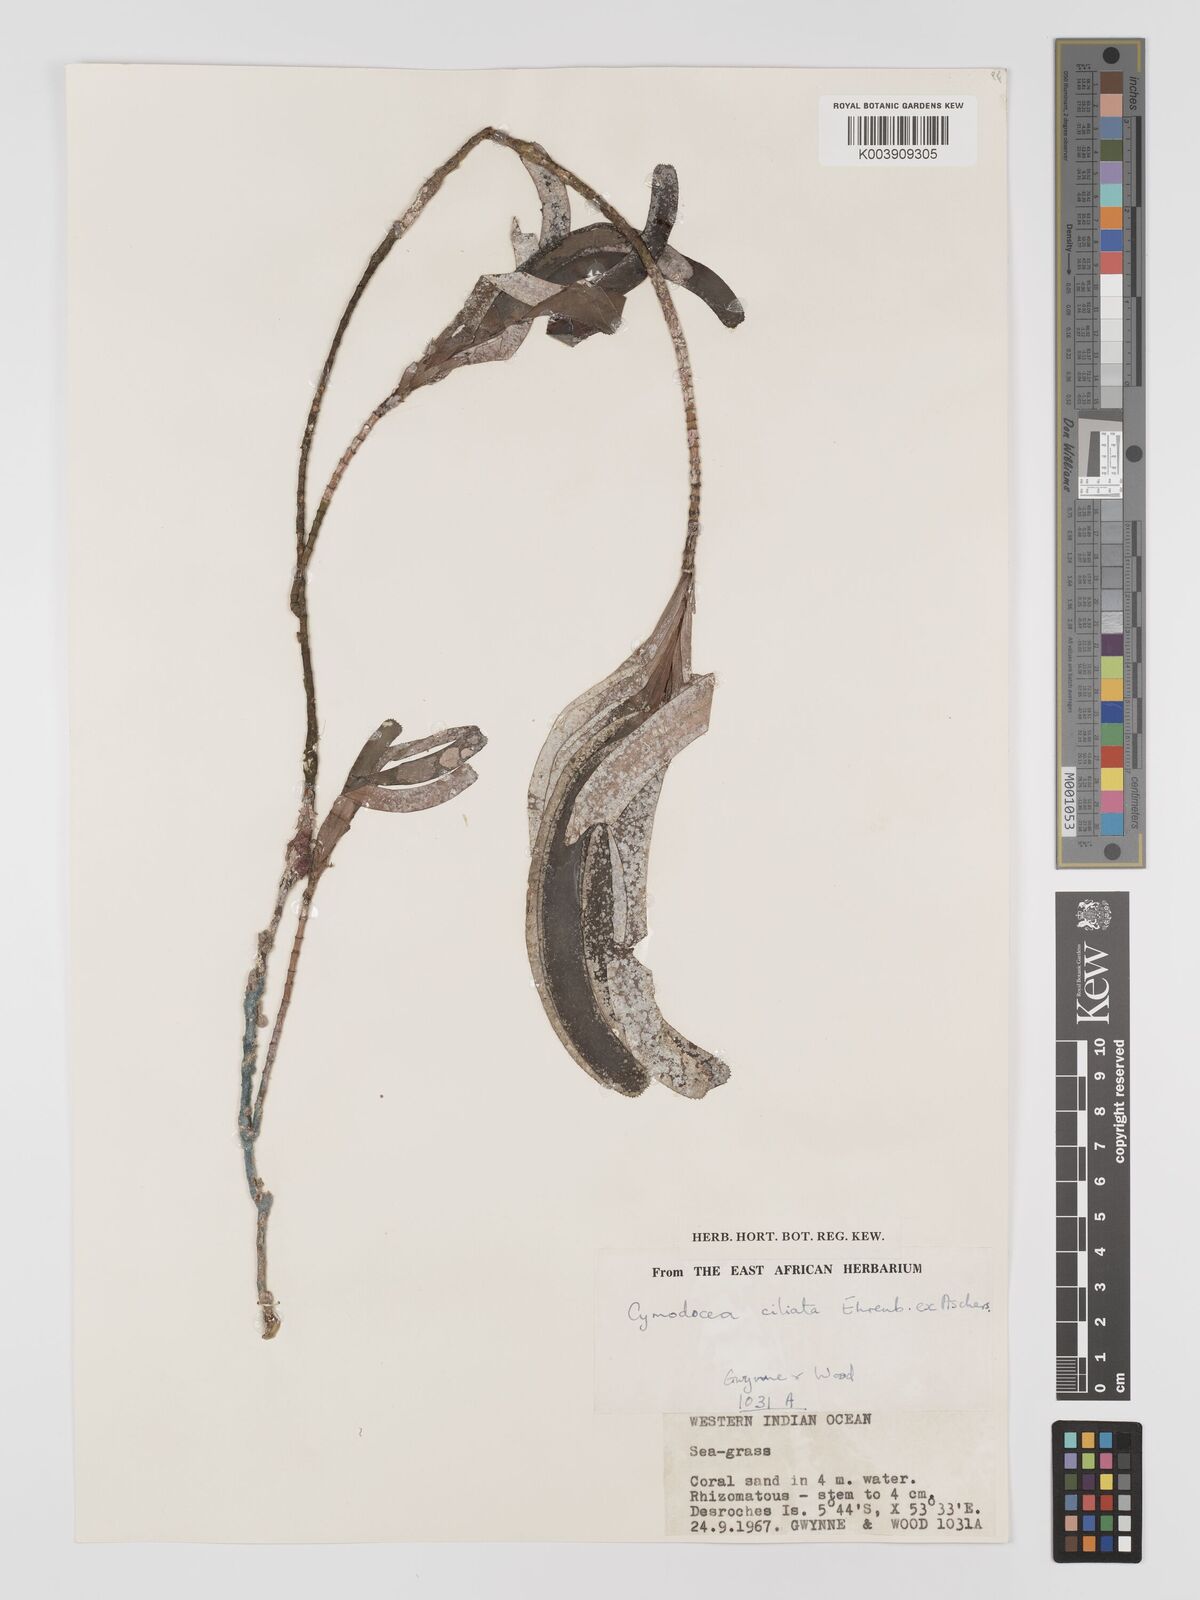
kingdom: Plantae
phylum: Tracheophyta
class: Liliopsida
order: Alismatales
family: Cymodoceaceae
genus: Thalassodendron
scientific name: Thalassodendron ciliatum
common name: Species code: tc
